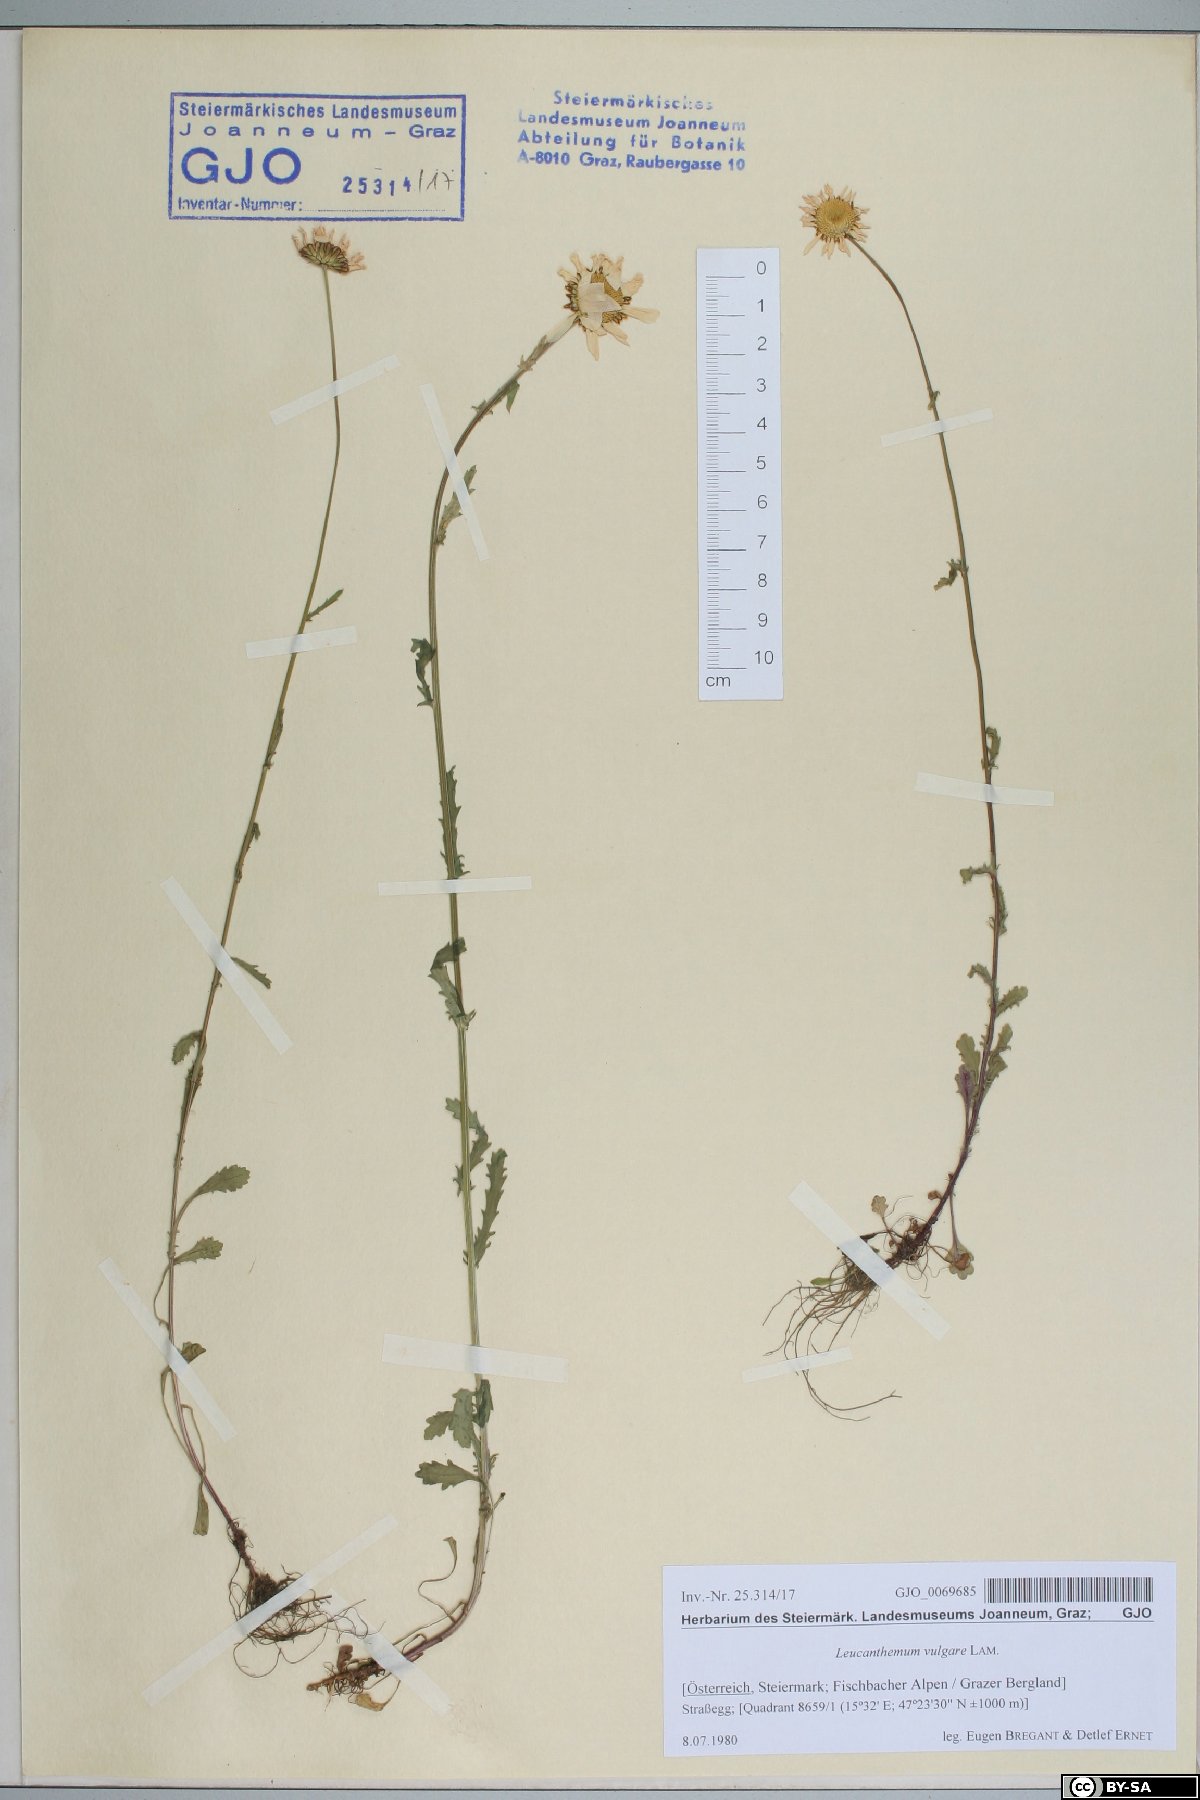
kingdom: Plantae
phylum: Tracheophyta
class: Magnoliopsida
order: Asterales
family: Asteraceae
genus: Leucanthemum
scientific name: Leucanthemum vulgare
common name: Oxeye daisy
